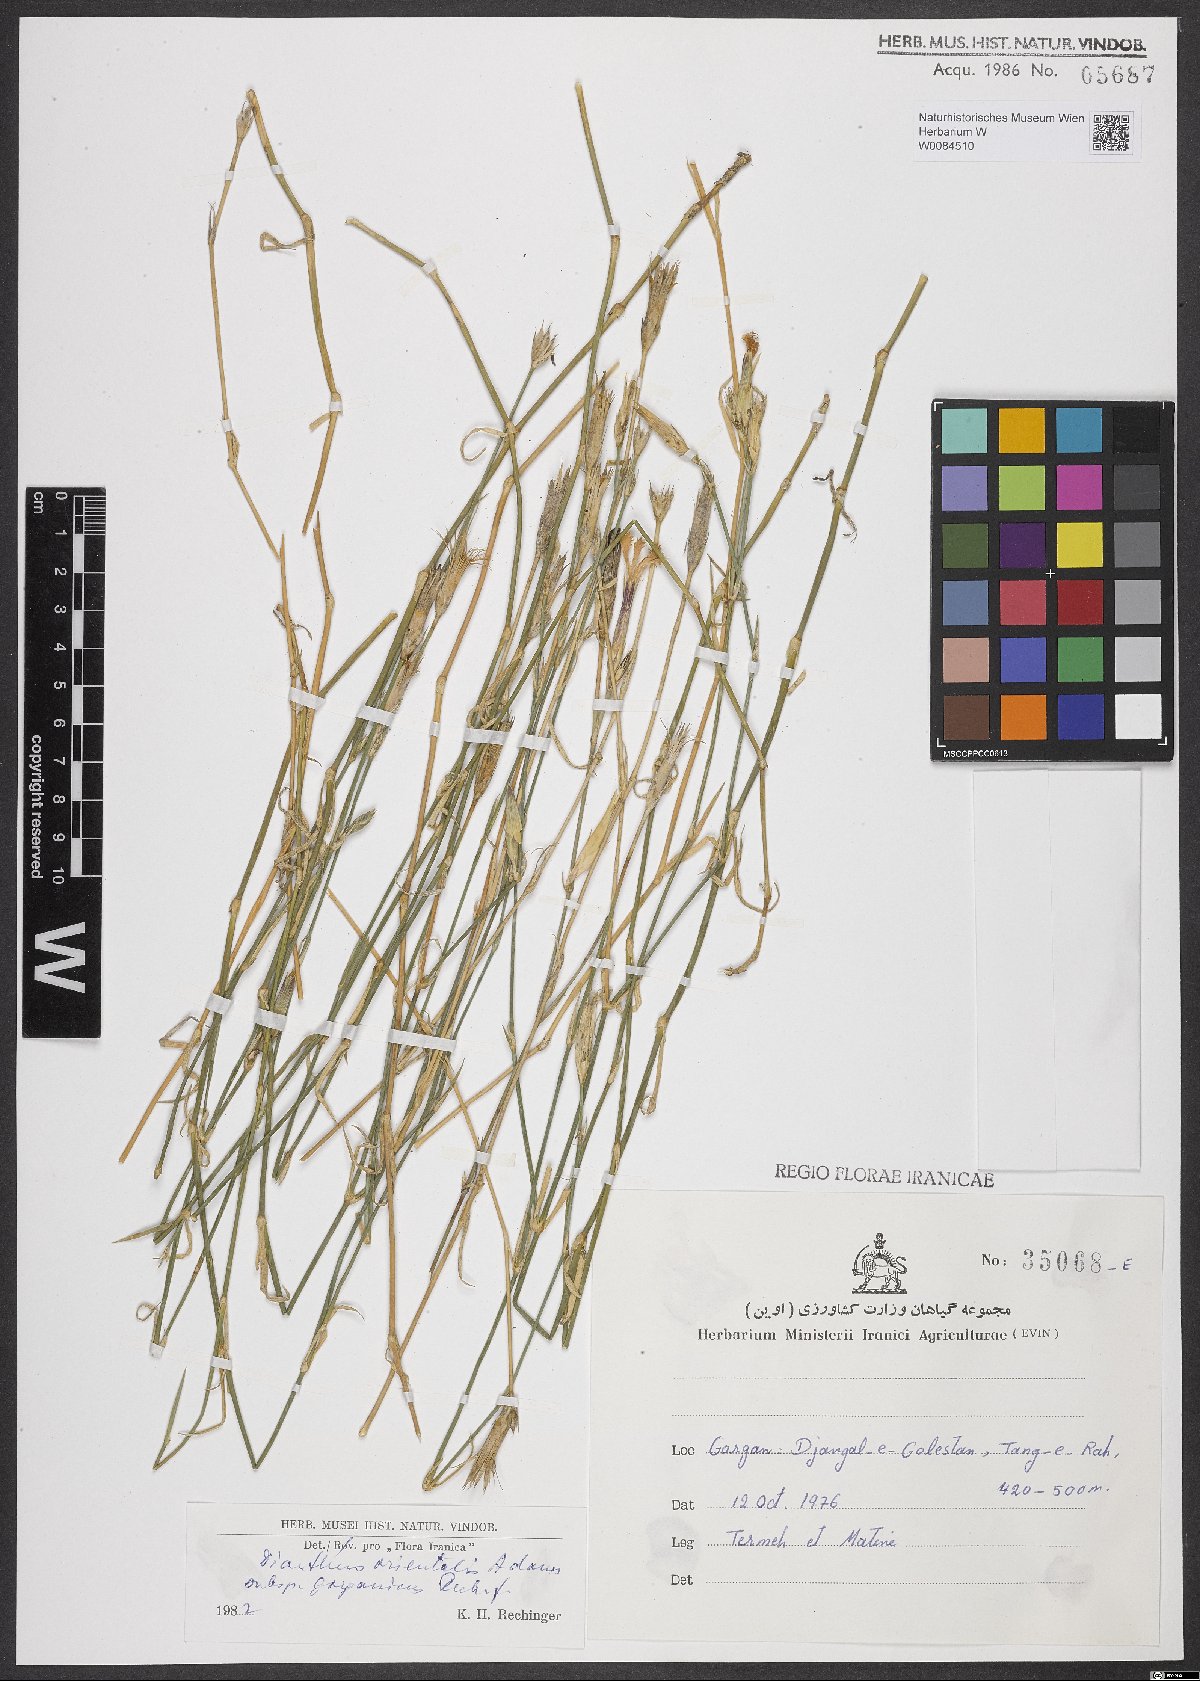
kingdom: Plantae
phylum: Tracheophyta
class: Magnoliopsida
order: Caryophyllales
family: Caryophyllaceae
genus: Dianthus
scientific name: Dianthus orientalis
